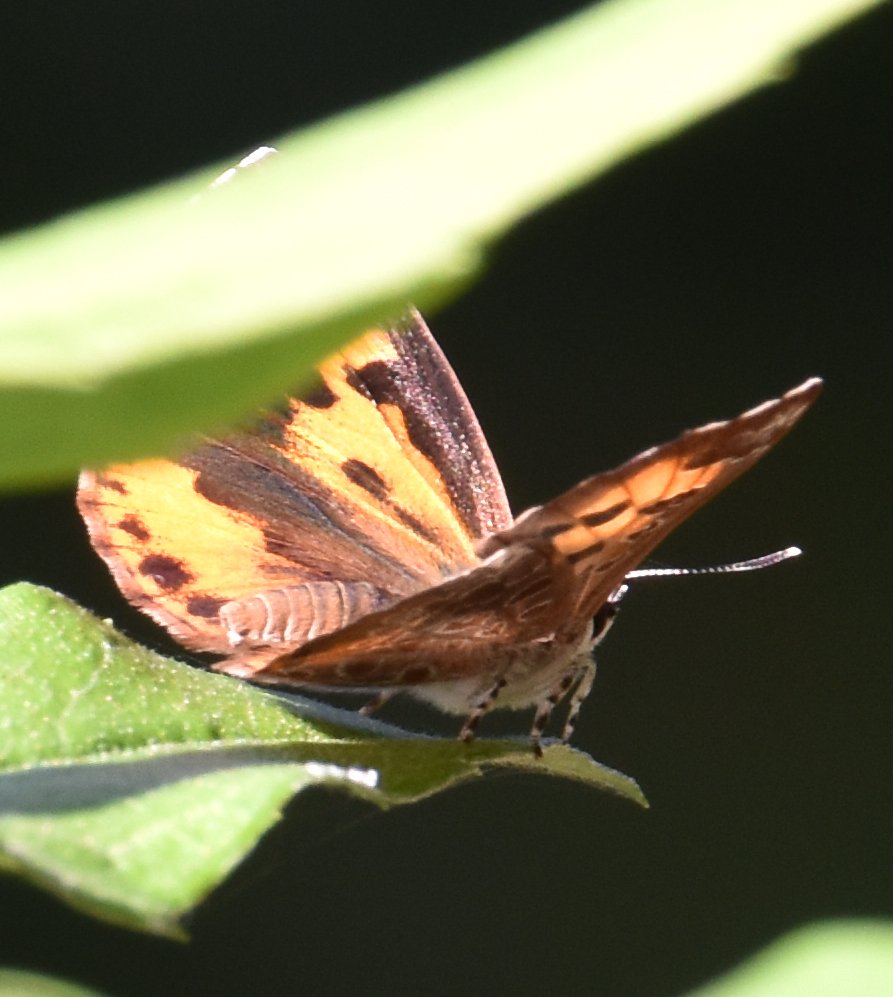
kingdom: Animalia
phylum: Arthropoda
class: Insecta
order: Lepidoptera
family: Lycaenidae
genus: Feniseca
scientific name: Feniseca tarquinius
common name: Harvester
